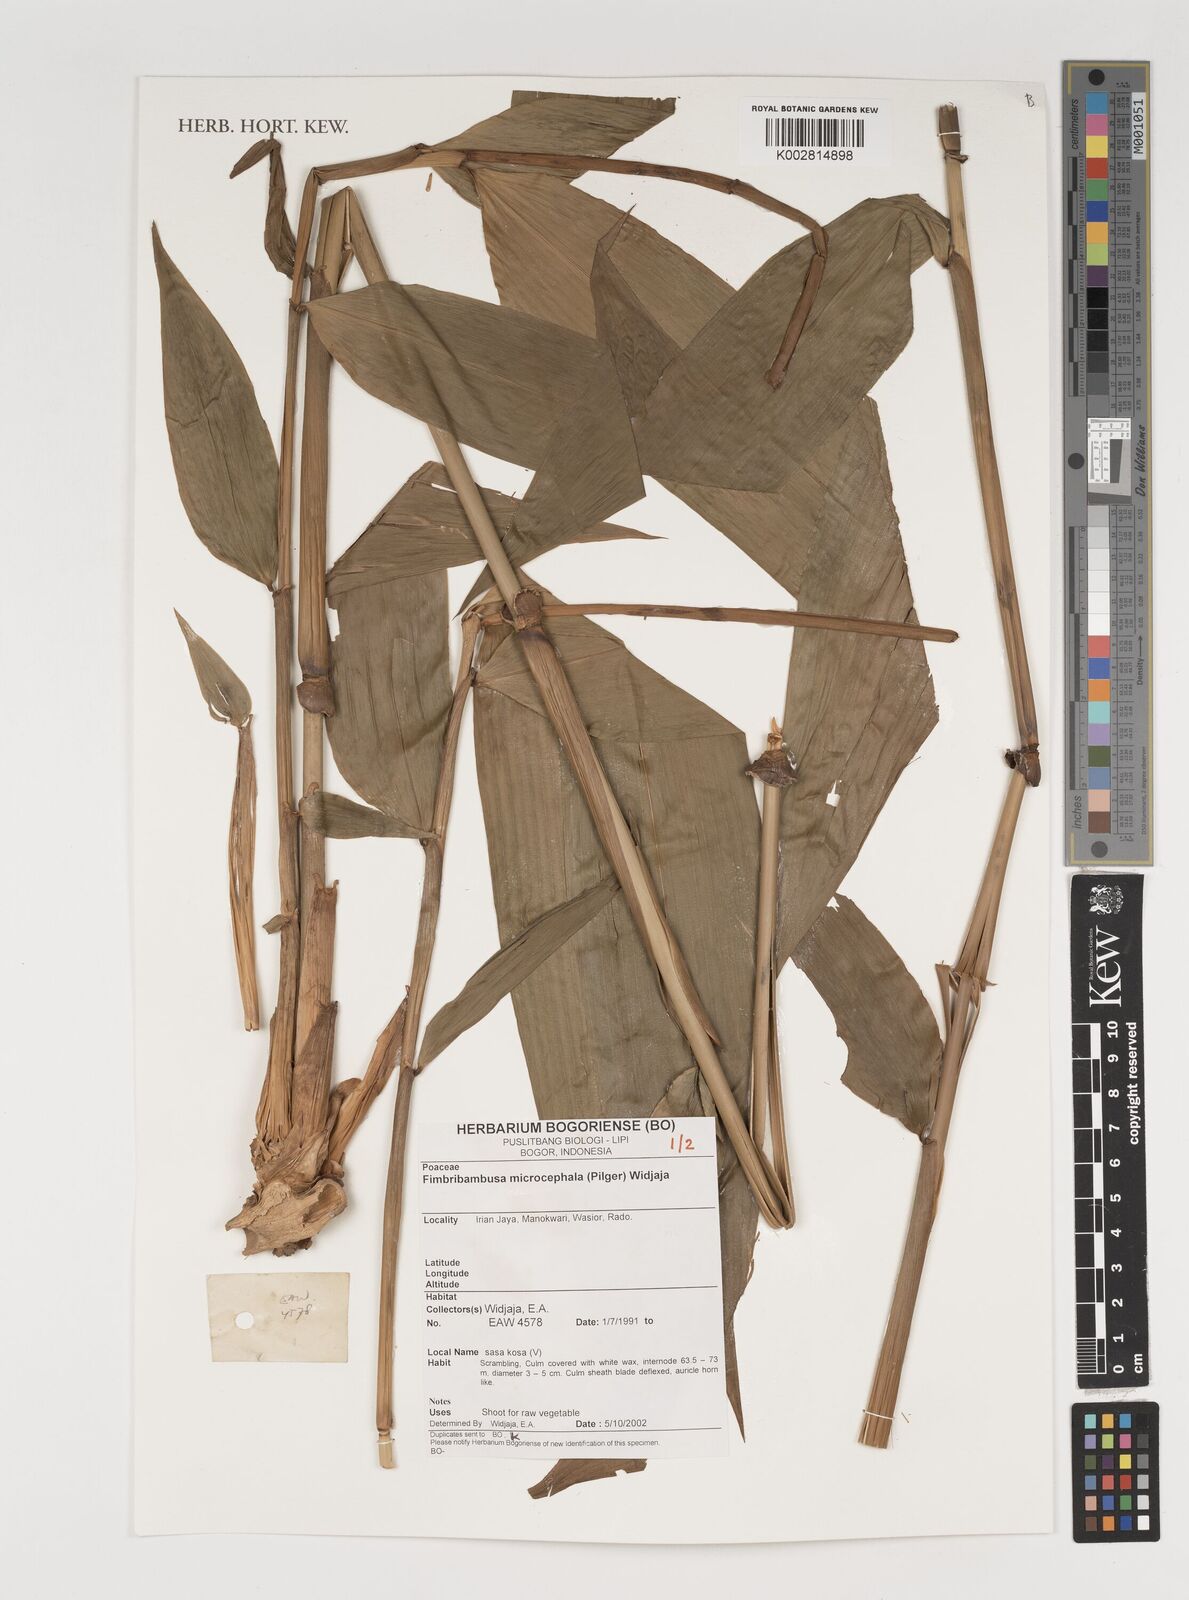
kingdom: Plantae
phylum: Tracheophyta
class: Liliopsida
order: Poales
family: Poaceae
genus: Fimbribambusa
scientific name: Fimbribambusa microcephala
